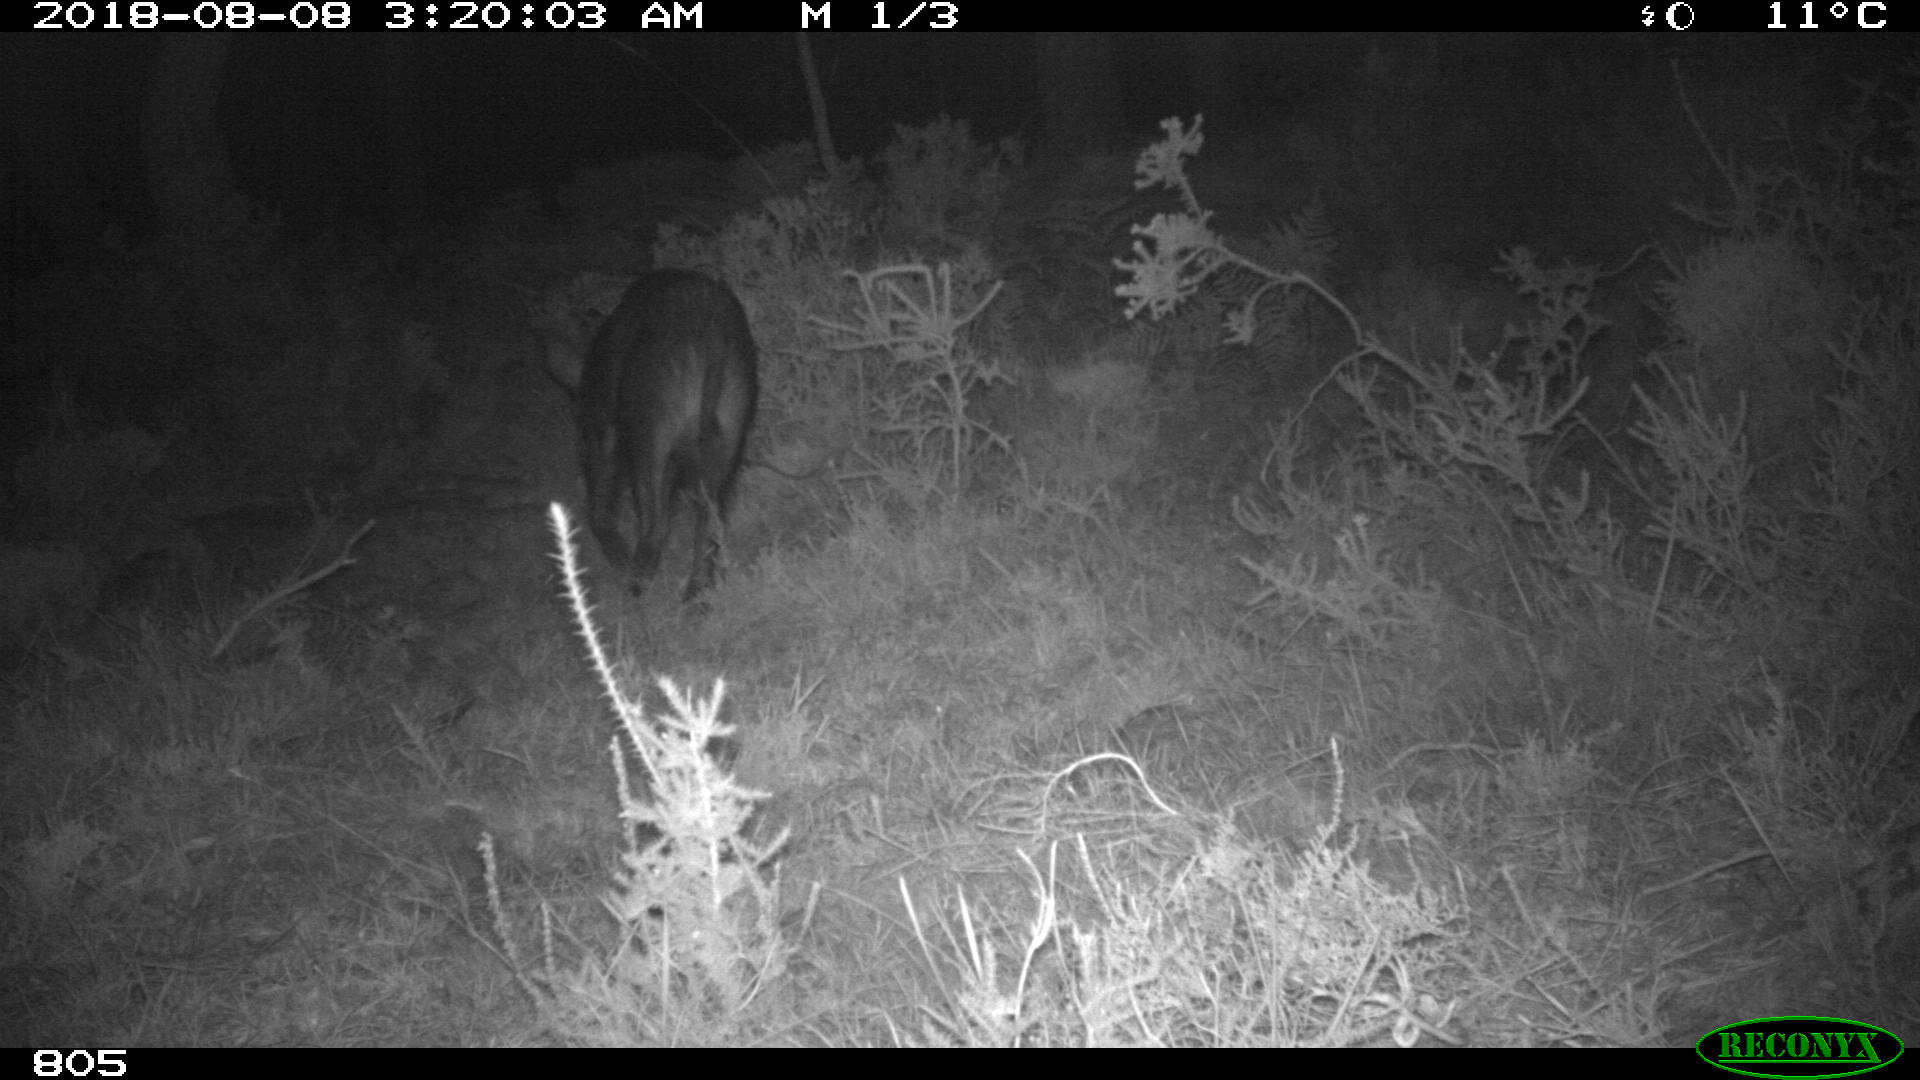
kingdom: Animalia
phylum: Chordata
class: Mammalia
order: Artiodactyla
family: Bovidae
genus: Bos
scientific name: Bos taurus
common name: Domesticated cattle
